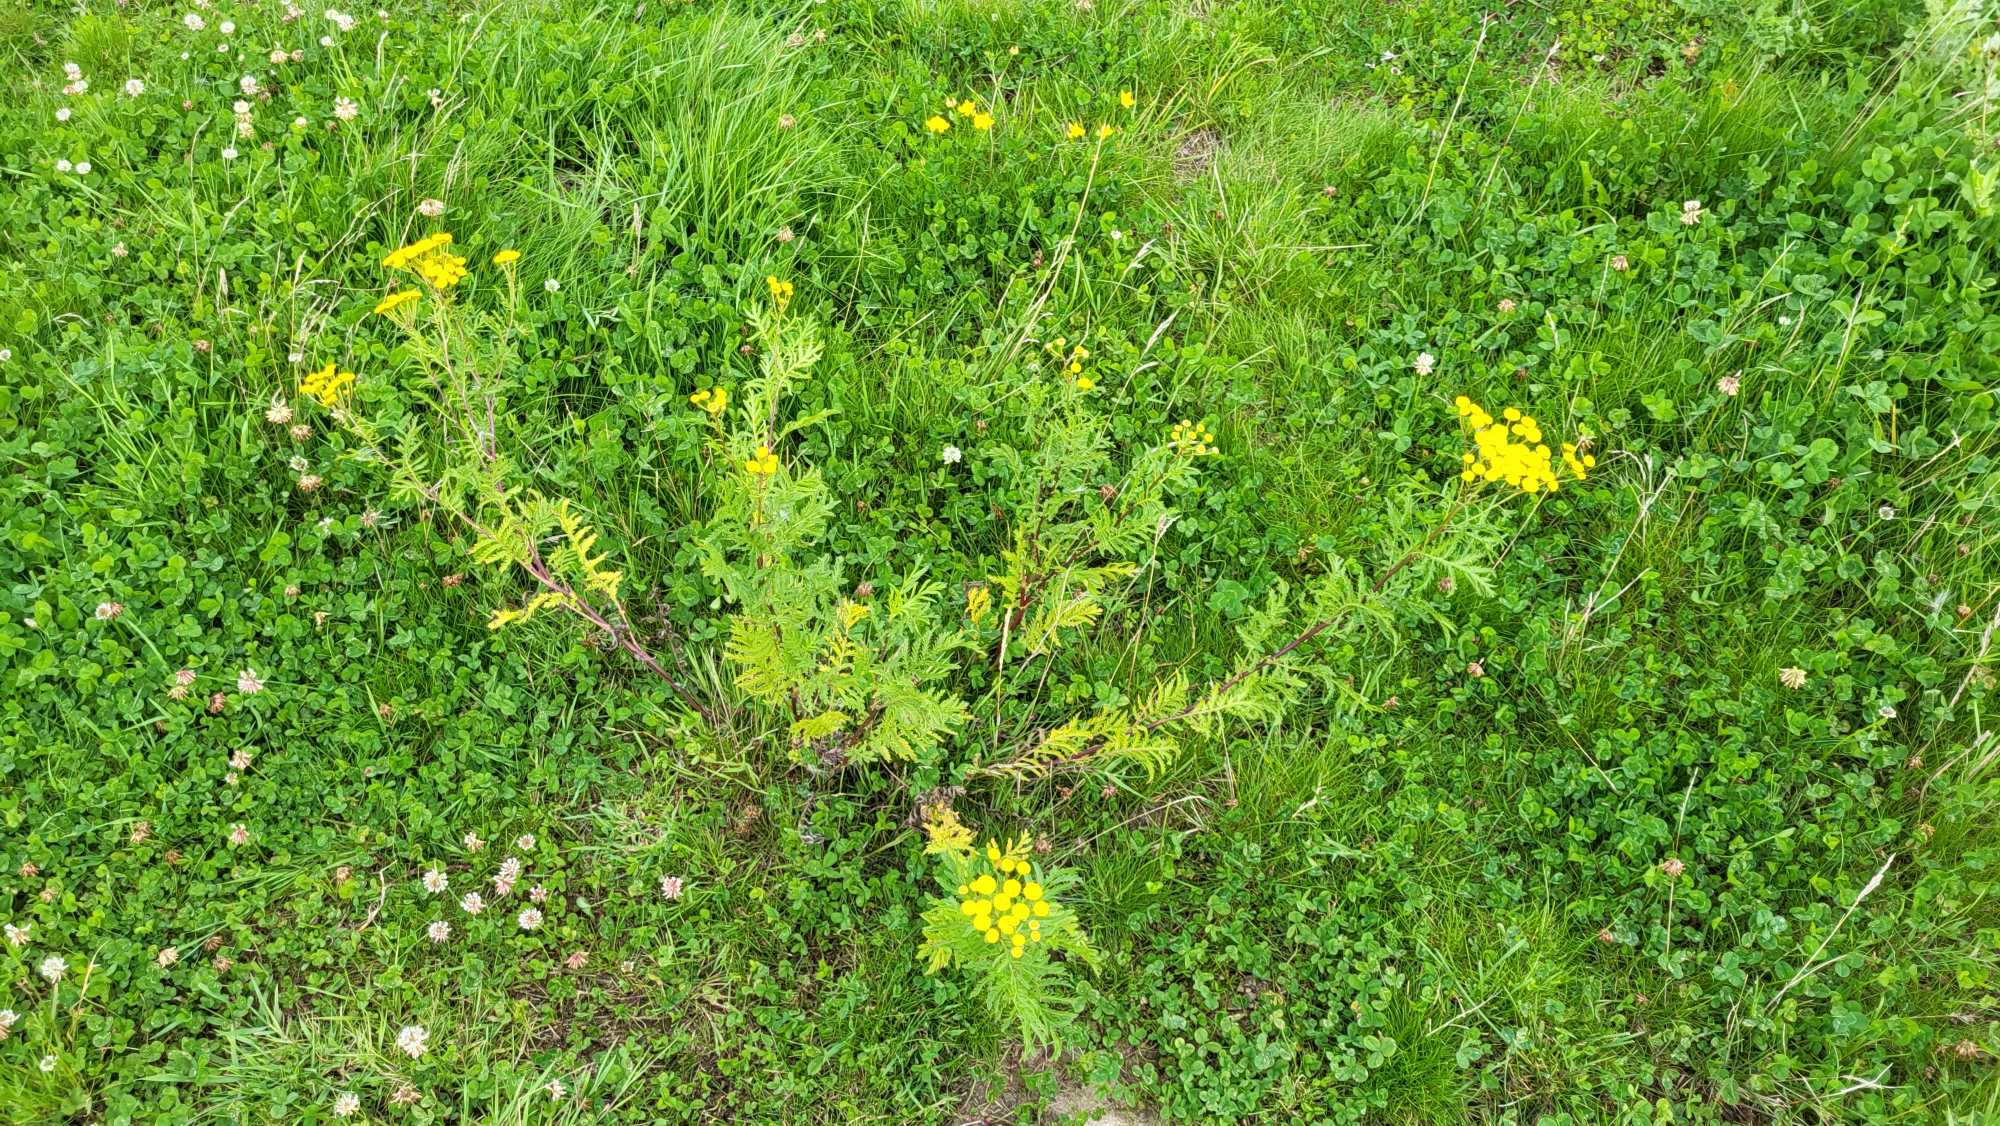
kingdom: Plantae
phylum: Tracheophyta
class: Magnoliopsida
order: Asterales
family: Asteraceae
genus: Tanacetum
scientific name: Tanacetum vulgare
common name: Rejnfan
